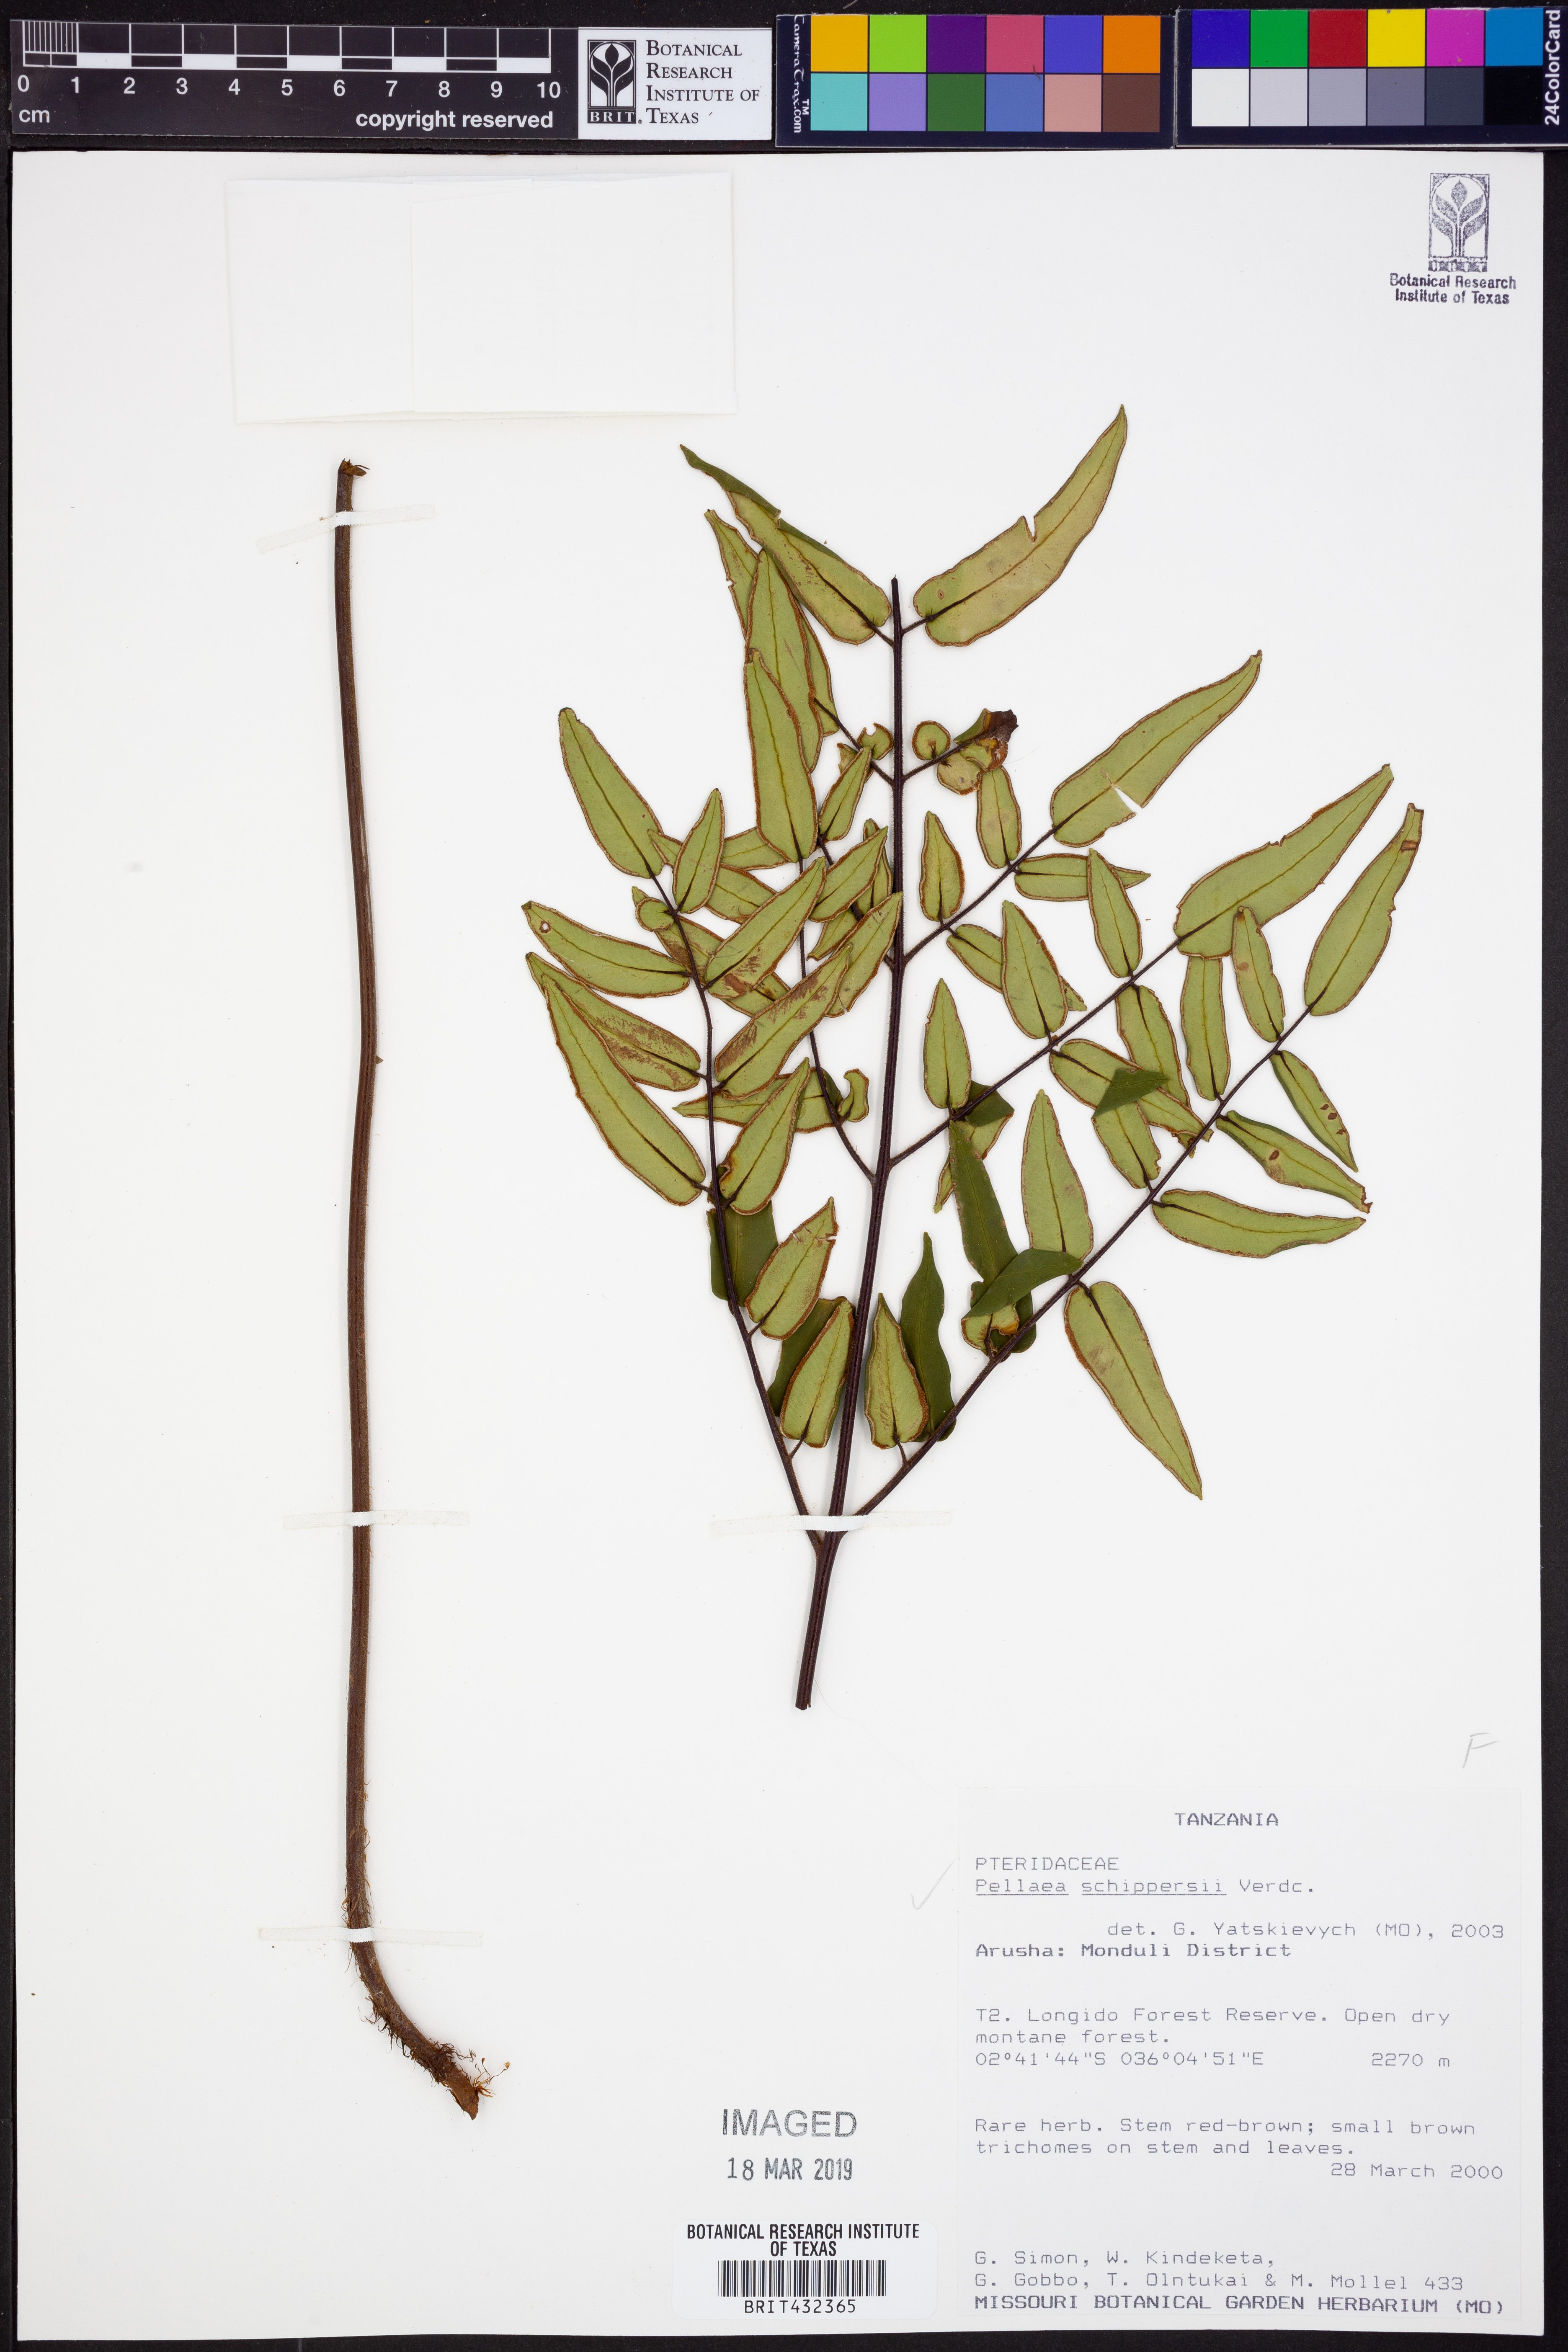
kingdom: Plantae
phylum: Tracheophyta
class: Polypodiopsida
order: Polypodiales
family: Pteridaceae
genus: Pellaea
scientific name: Pellaea schippersii
